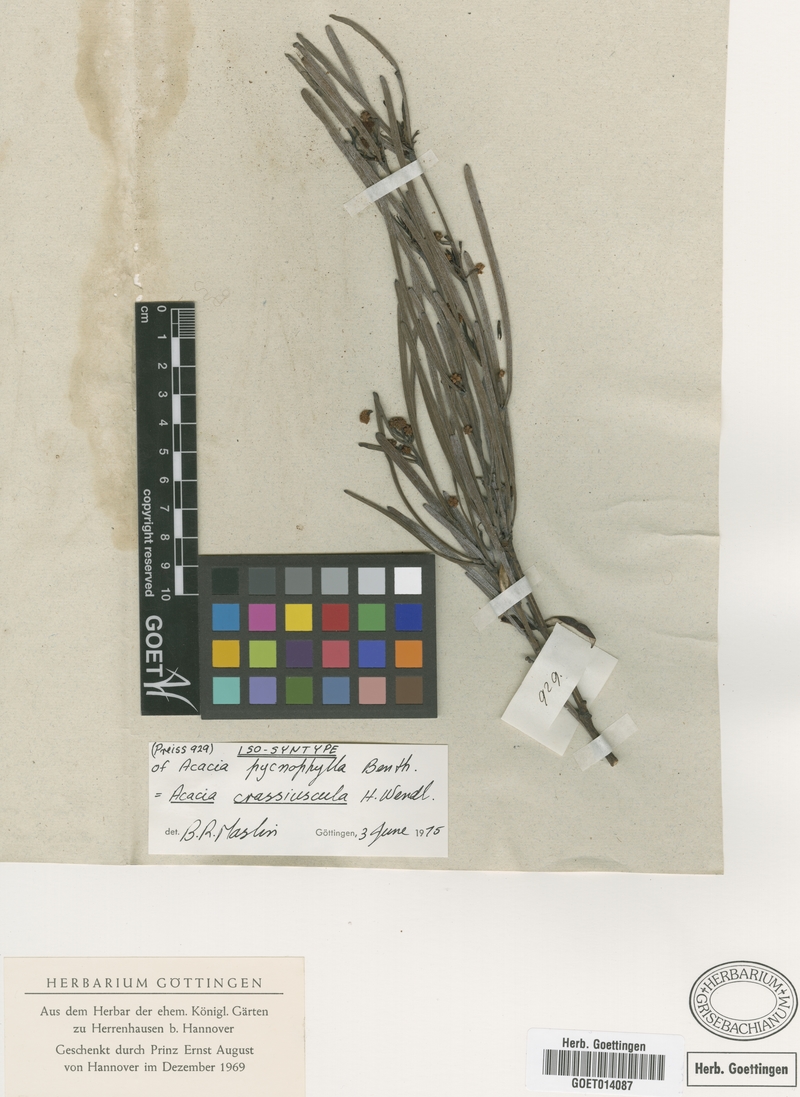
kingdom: Plantae
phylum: Tracheophyta
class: Magnoliopsida
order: Fabales
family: Fabaceae
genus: Acacia
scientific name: Acacia crassiuscula
